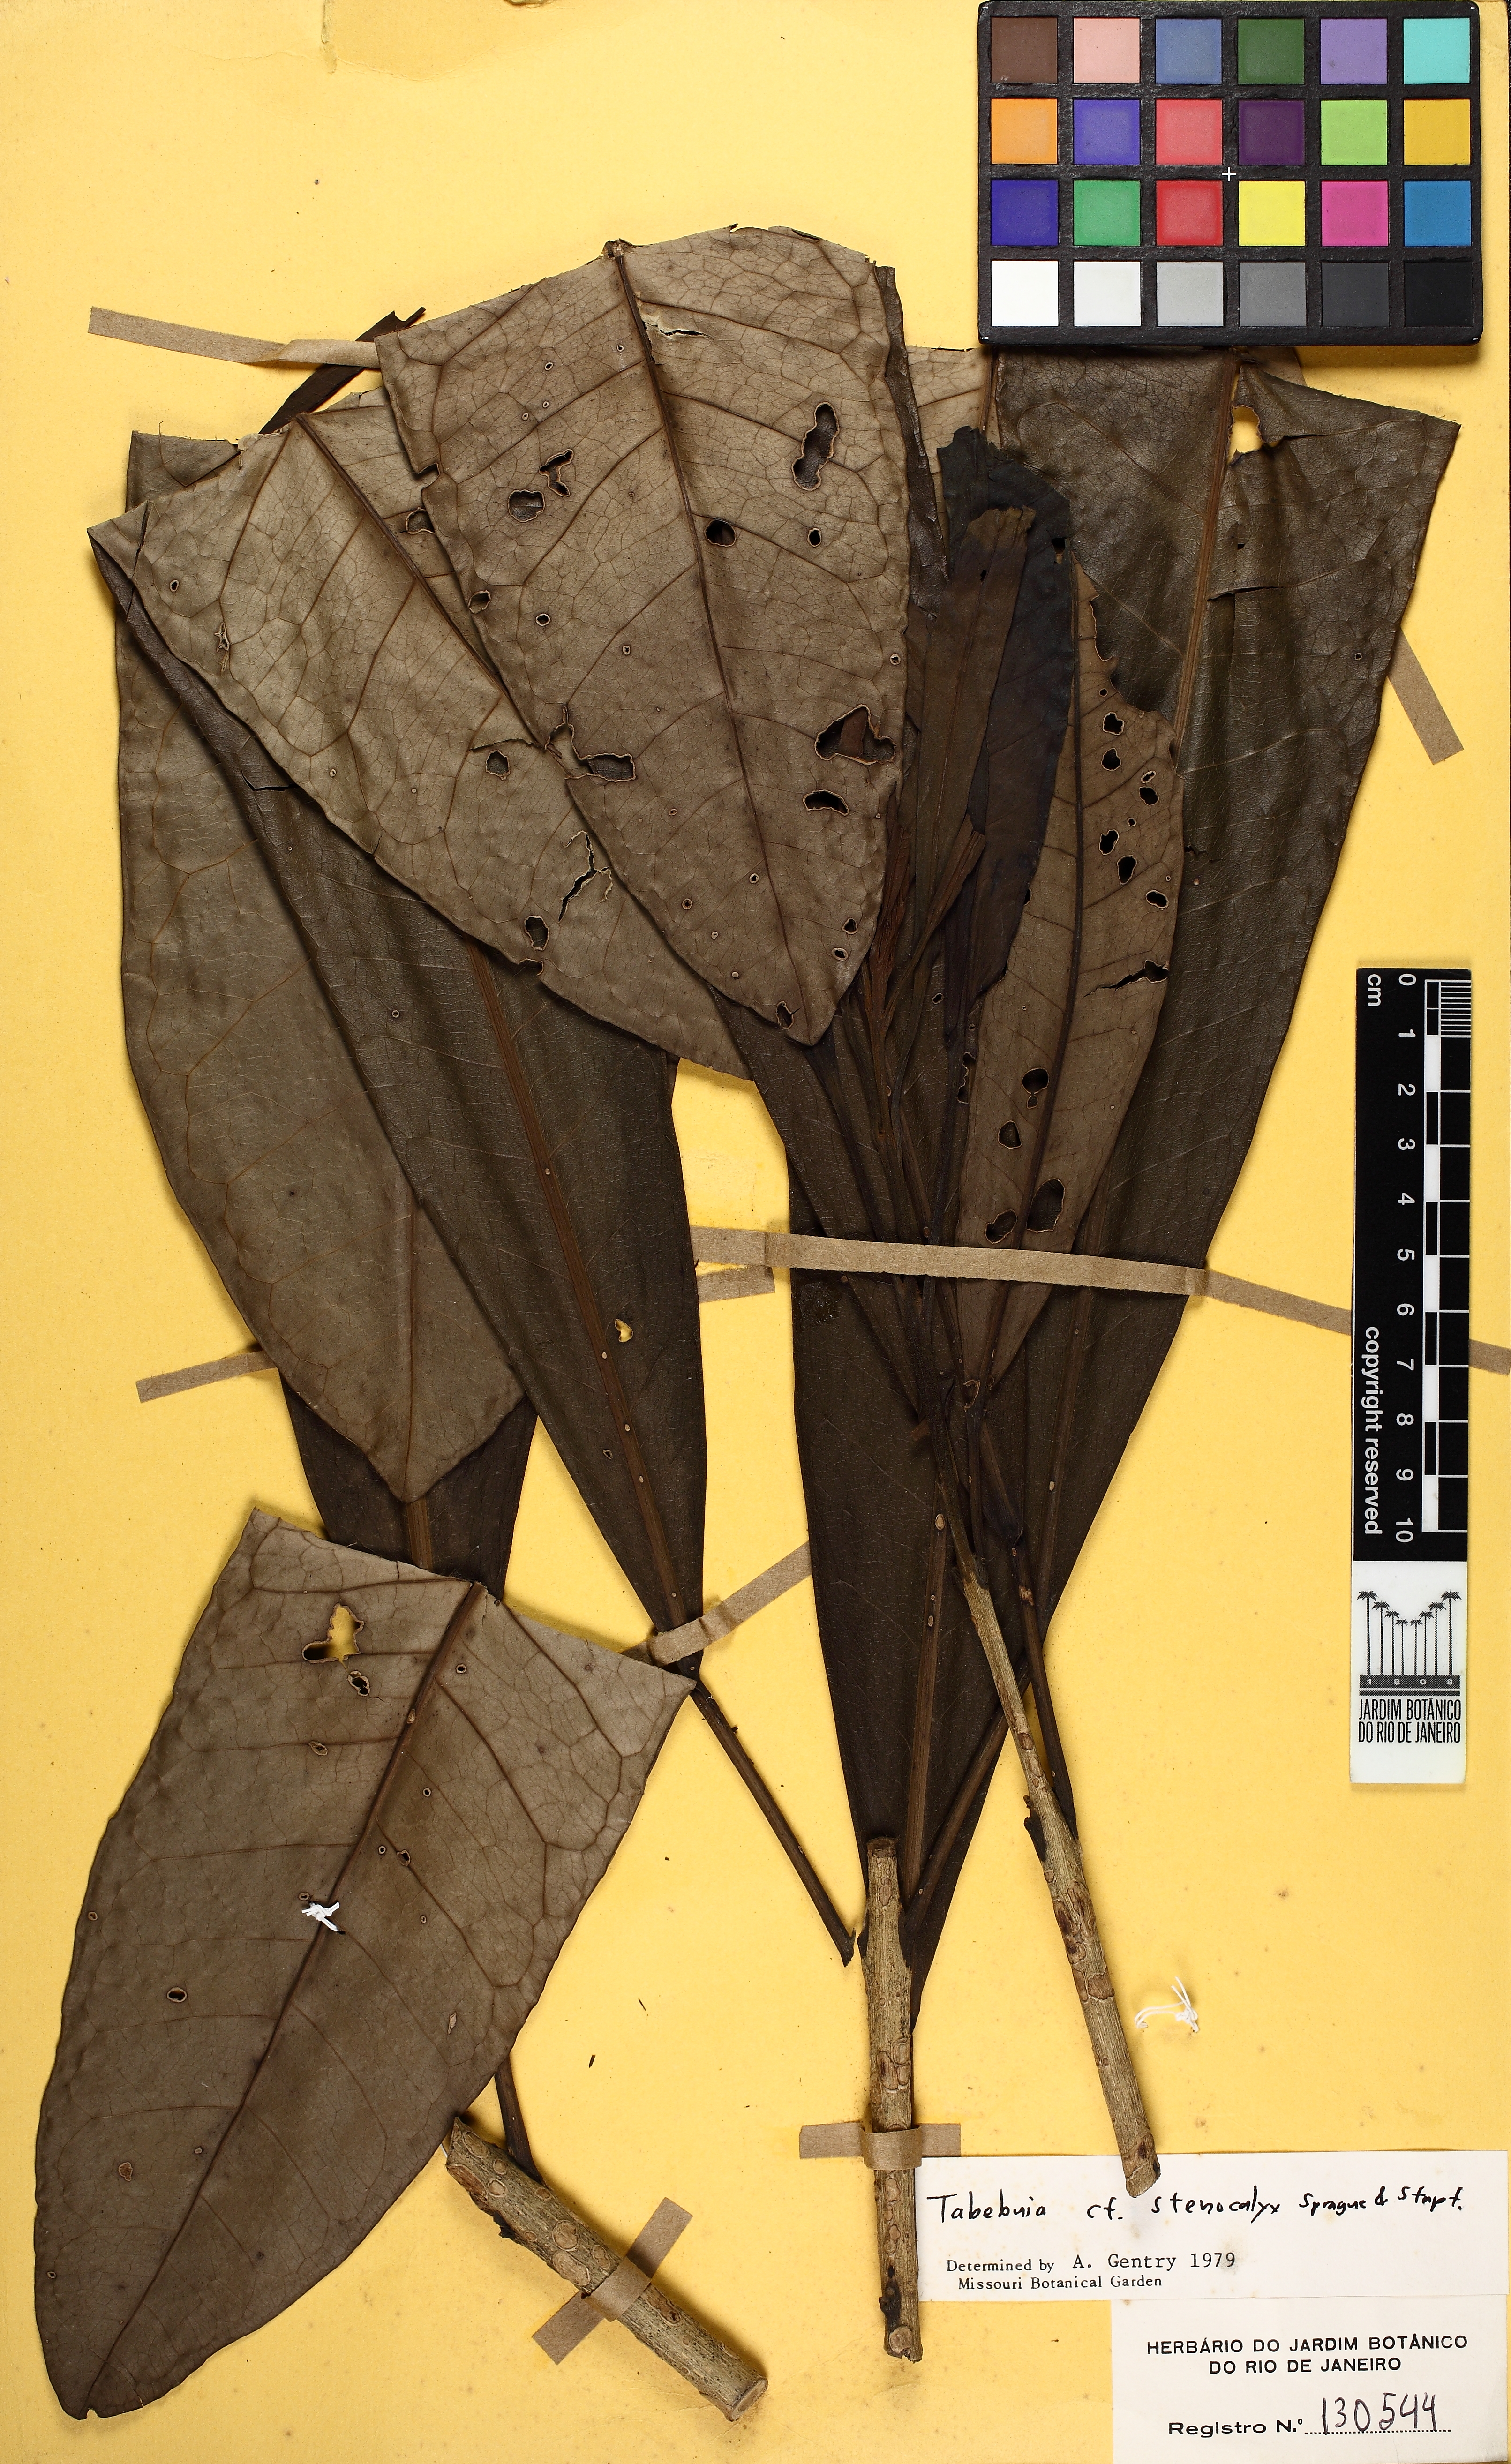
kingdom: Plantae
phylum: Tracheophyta
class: Magnoliopsida
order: Lamiales
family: Bignoniaceae
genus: Tabebuia
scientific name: Tabebuia stenocalyx
